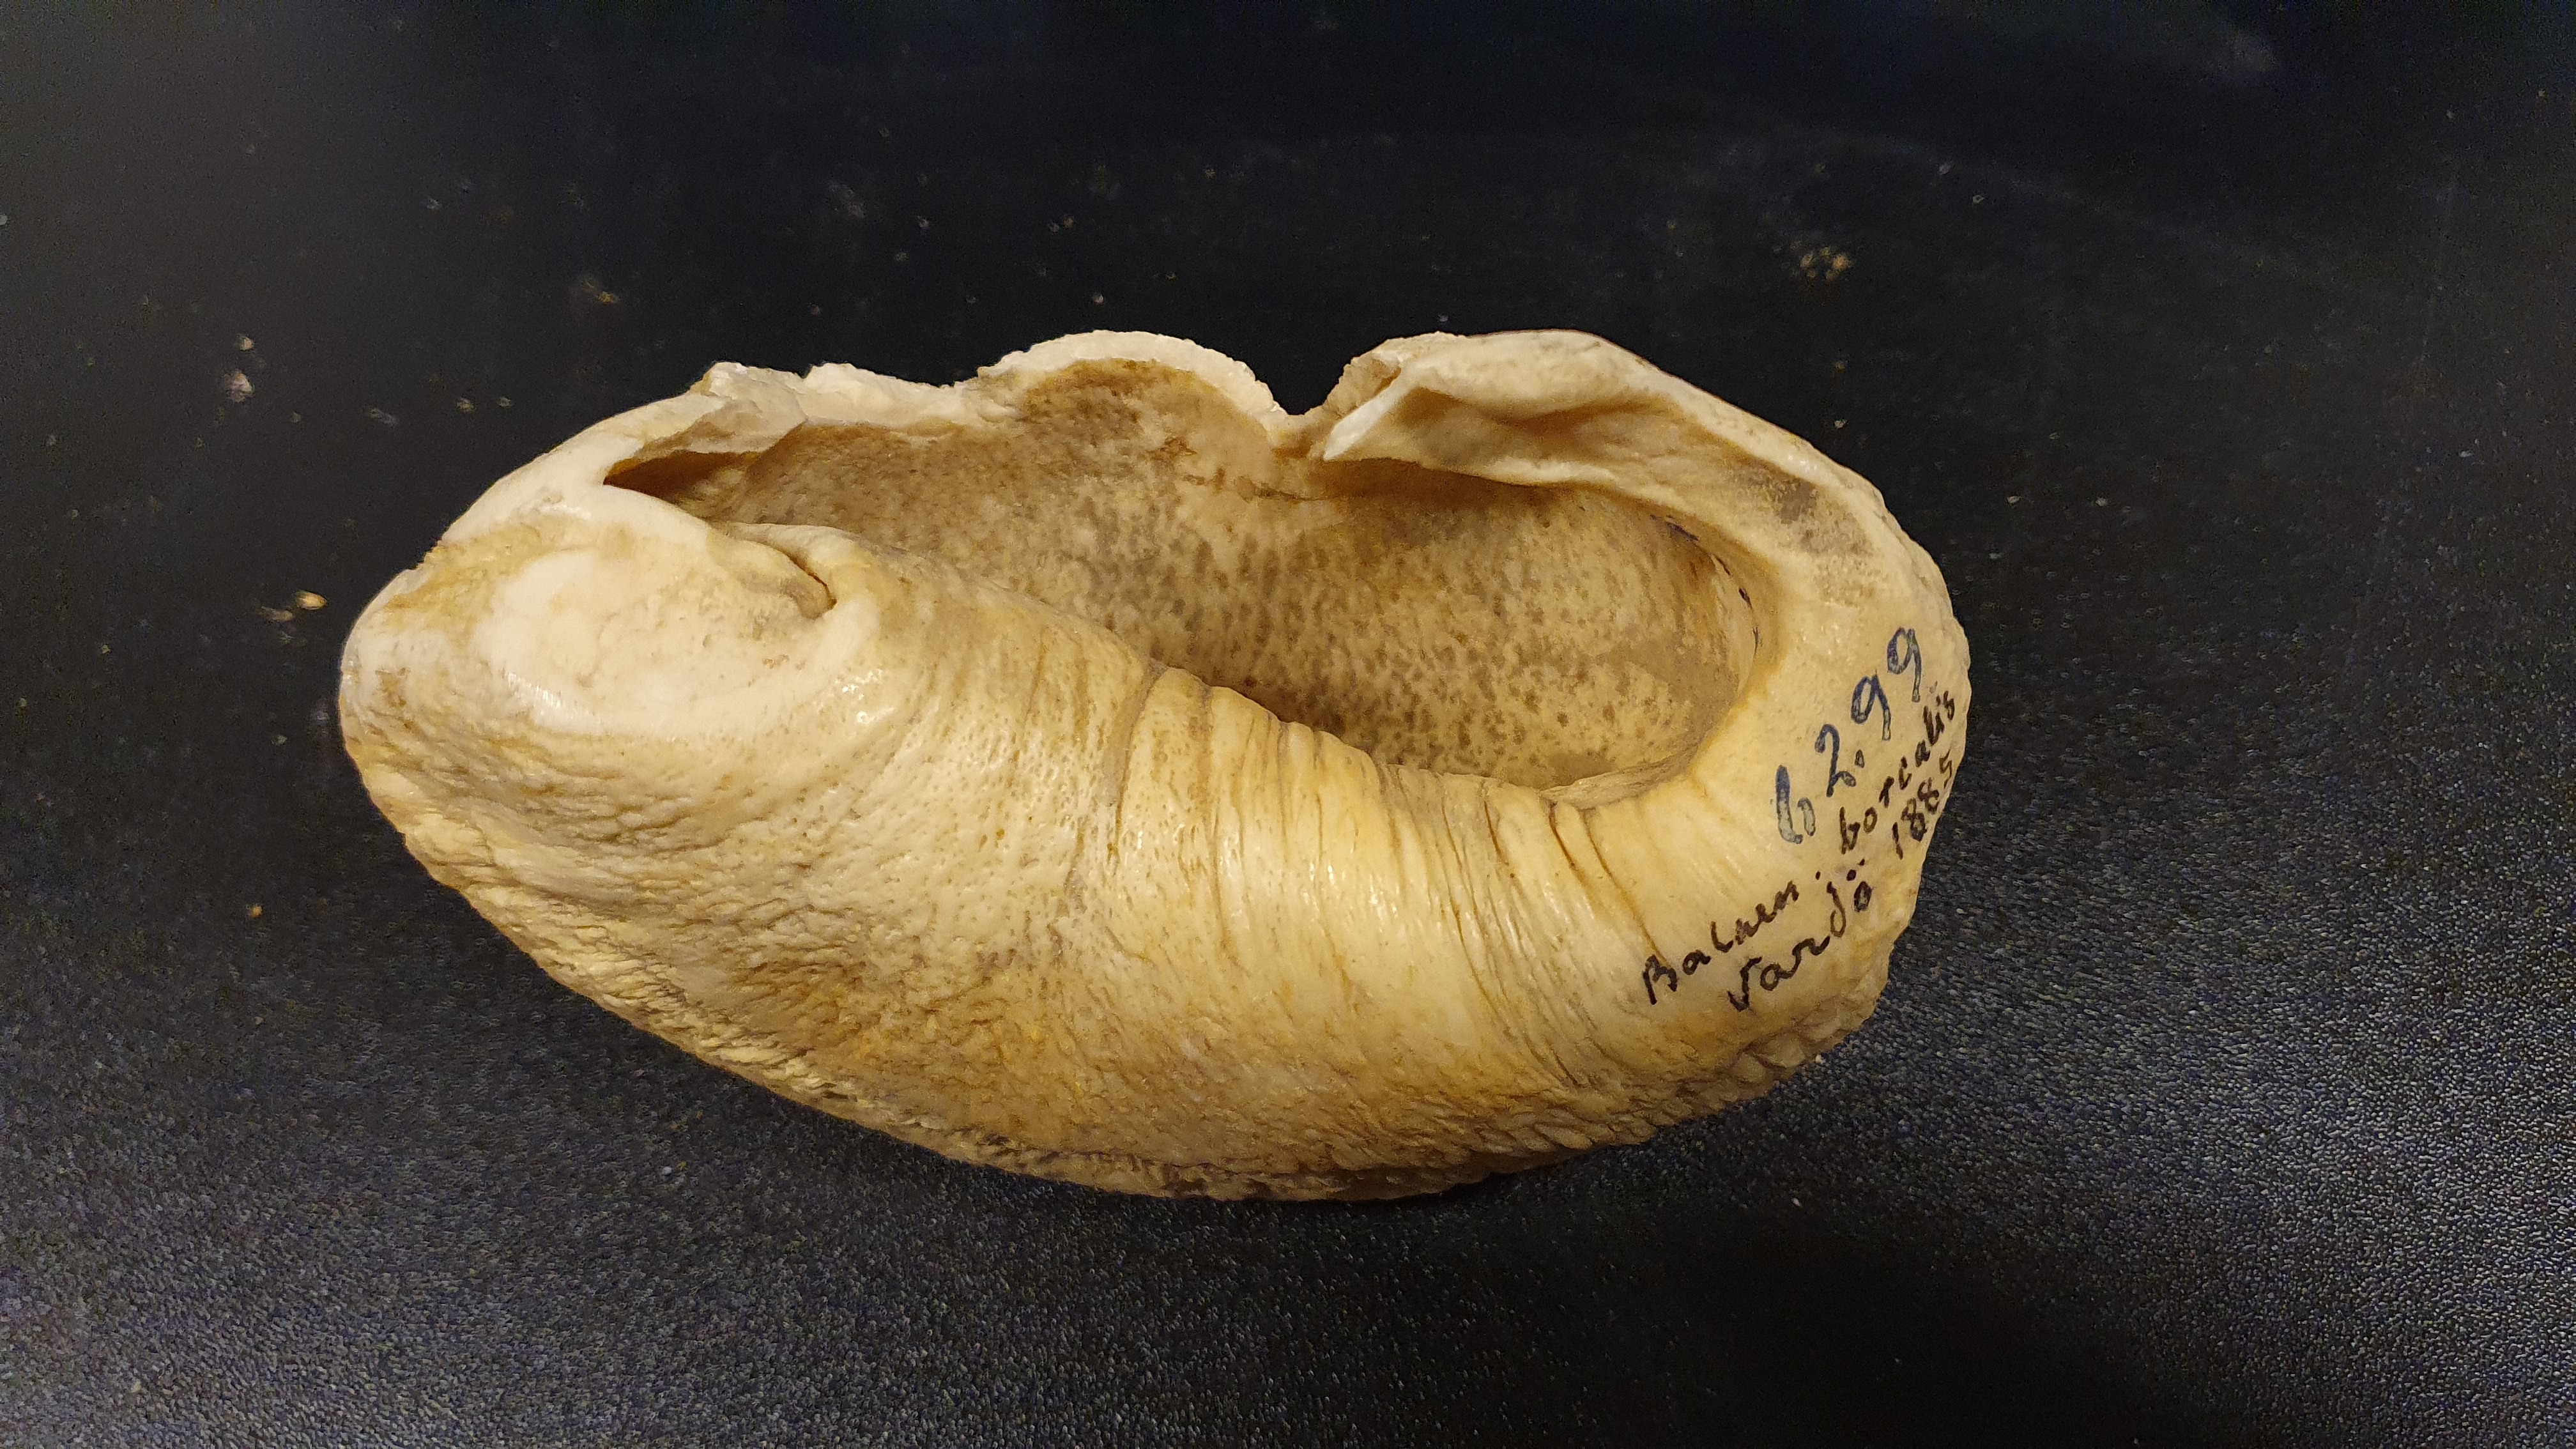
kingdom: Animalia
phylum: Chordata
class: Mammalia
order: Cetacea
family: Balaenopteridae
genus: Balaenoptera
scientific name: Balaenoptera borealis
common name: Sei whale
